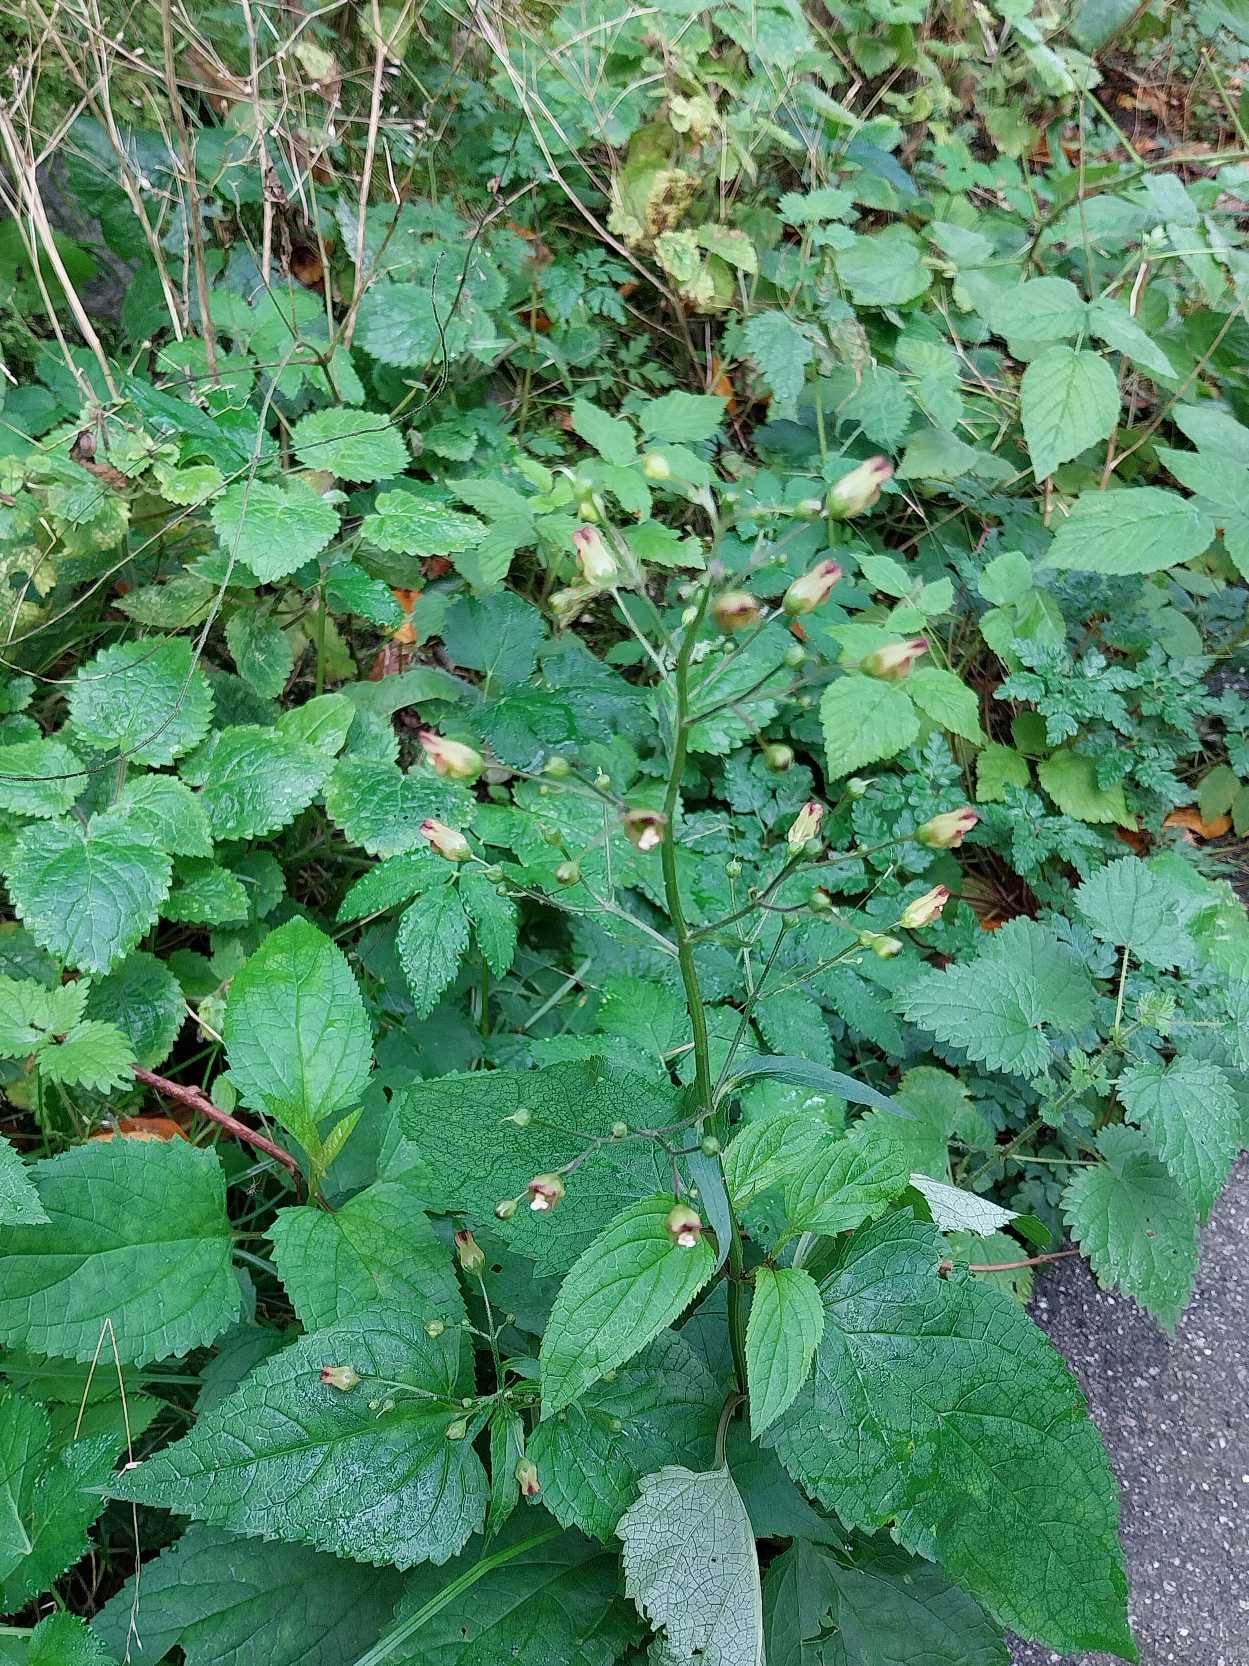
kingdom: Plantae
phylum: Tracheophyta
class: Magnoliopsida
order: Lamiales
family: Scrophulariaceae
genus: Scrophularia
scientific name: Scrophularia nodosa
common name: Knoldet brunrod
